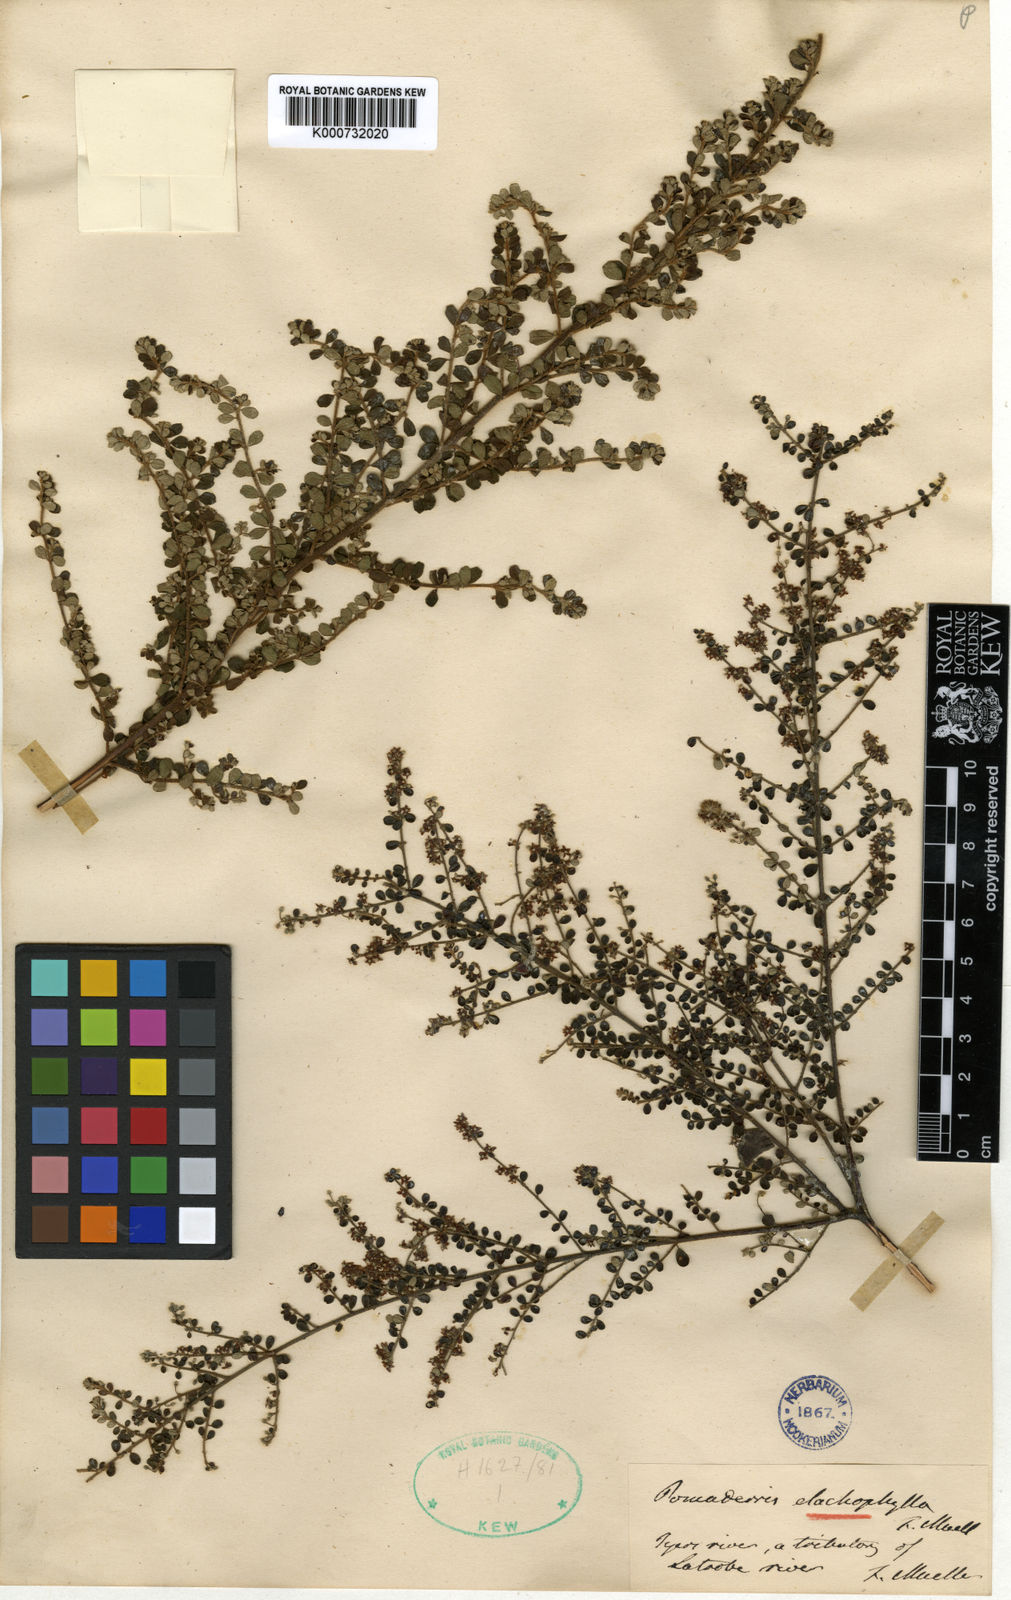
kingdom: Plantae
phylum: Tracheophyta
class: Magnoliopsida
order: Rosales
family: Rhamnaceae
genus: Pomaderris
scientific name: Pomaderris elachophylla
